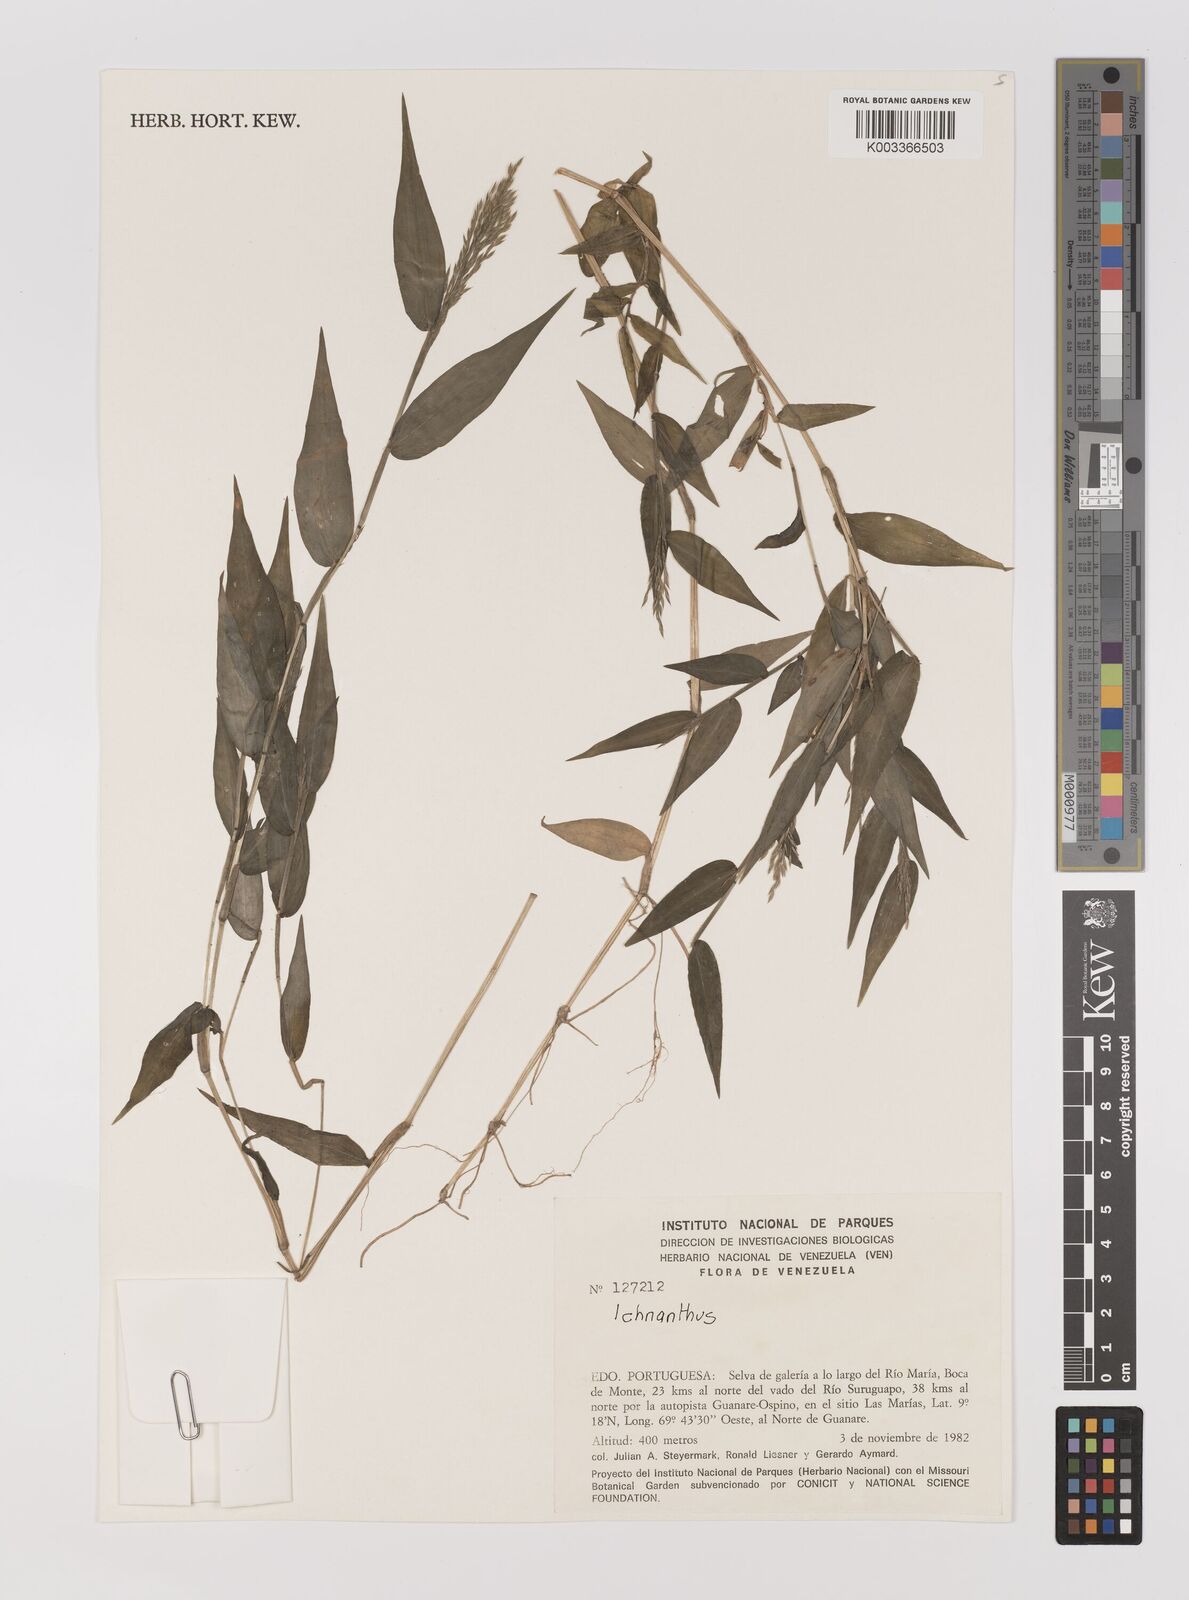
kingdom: Plantae
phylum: Tracheophyta
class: Liliopsida
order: Poales
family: Poaceae
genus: Ichnanthus
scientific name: Ichnanthus
